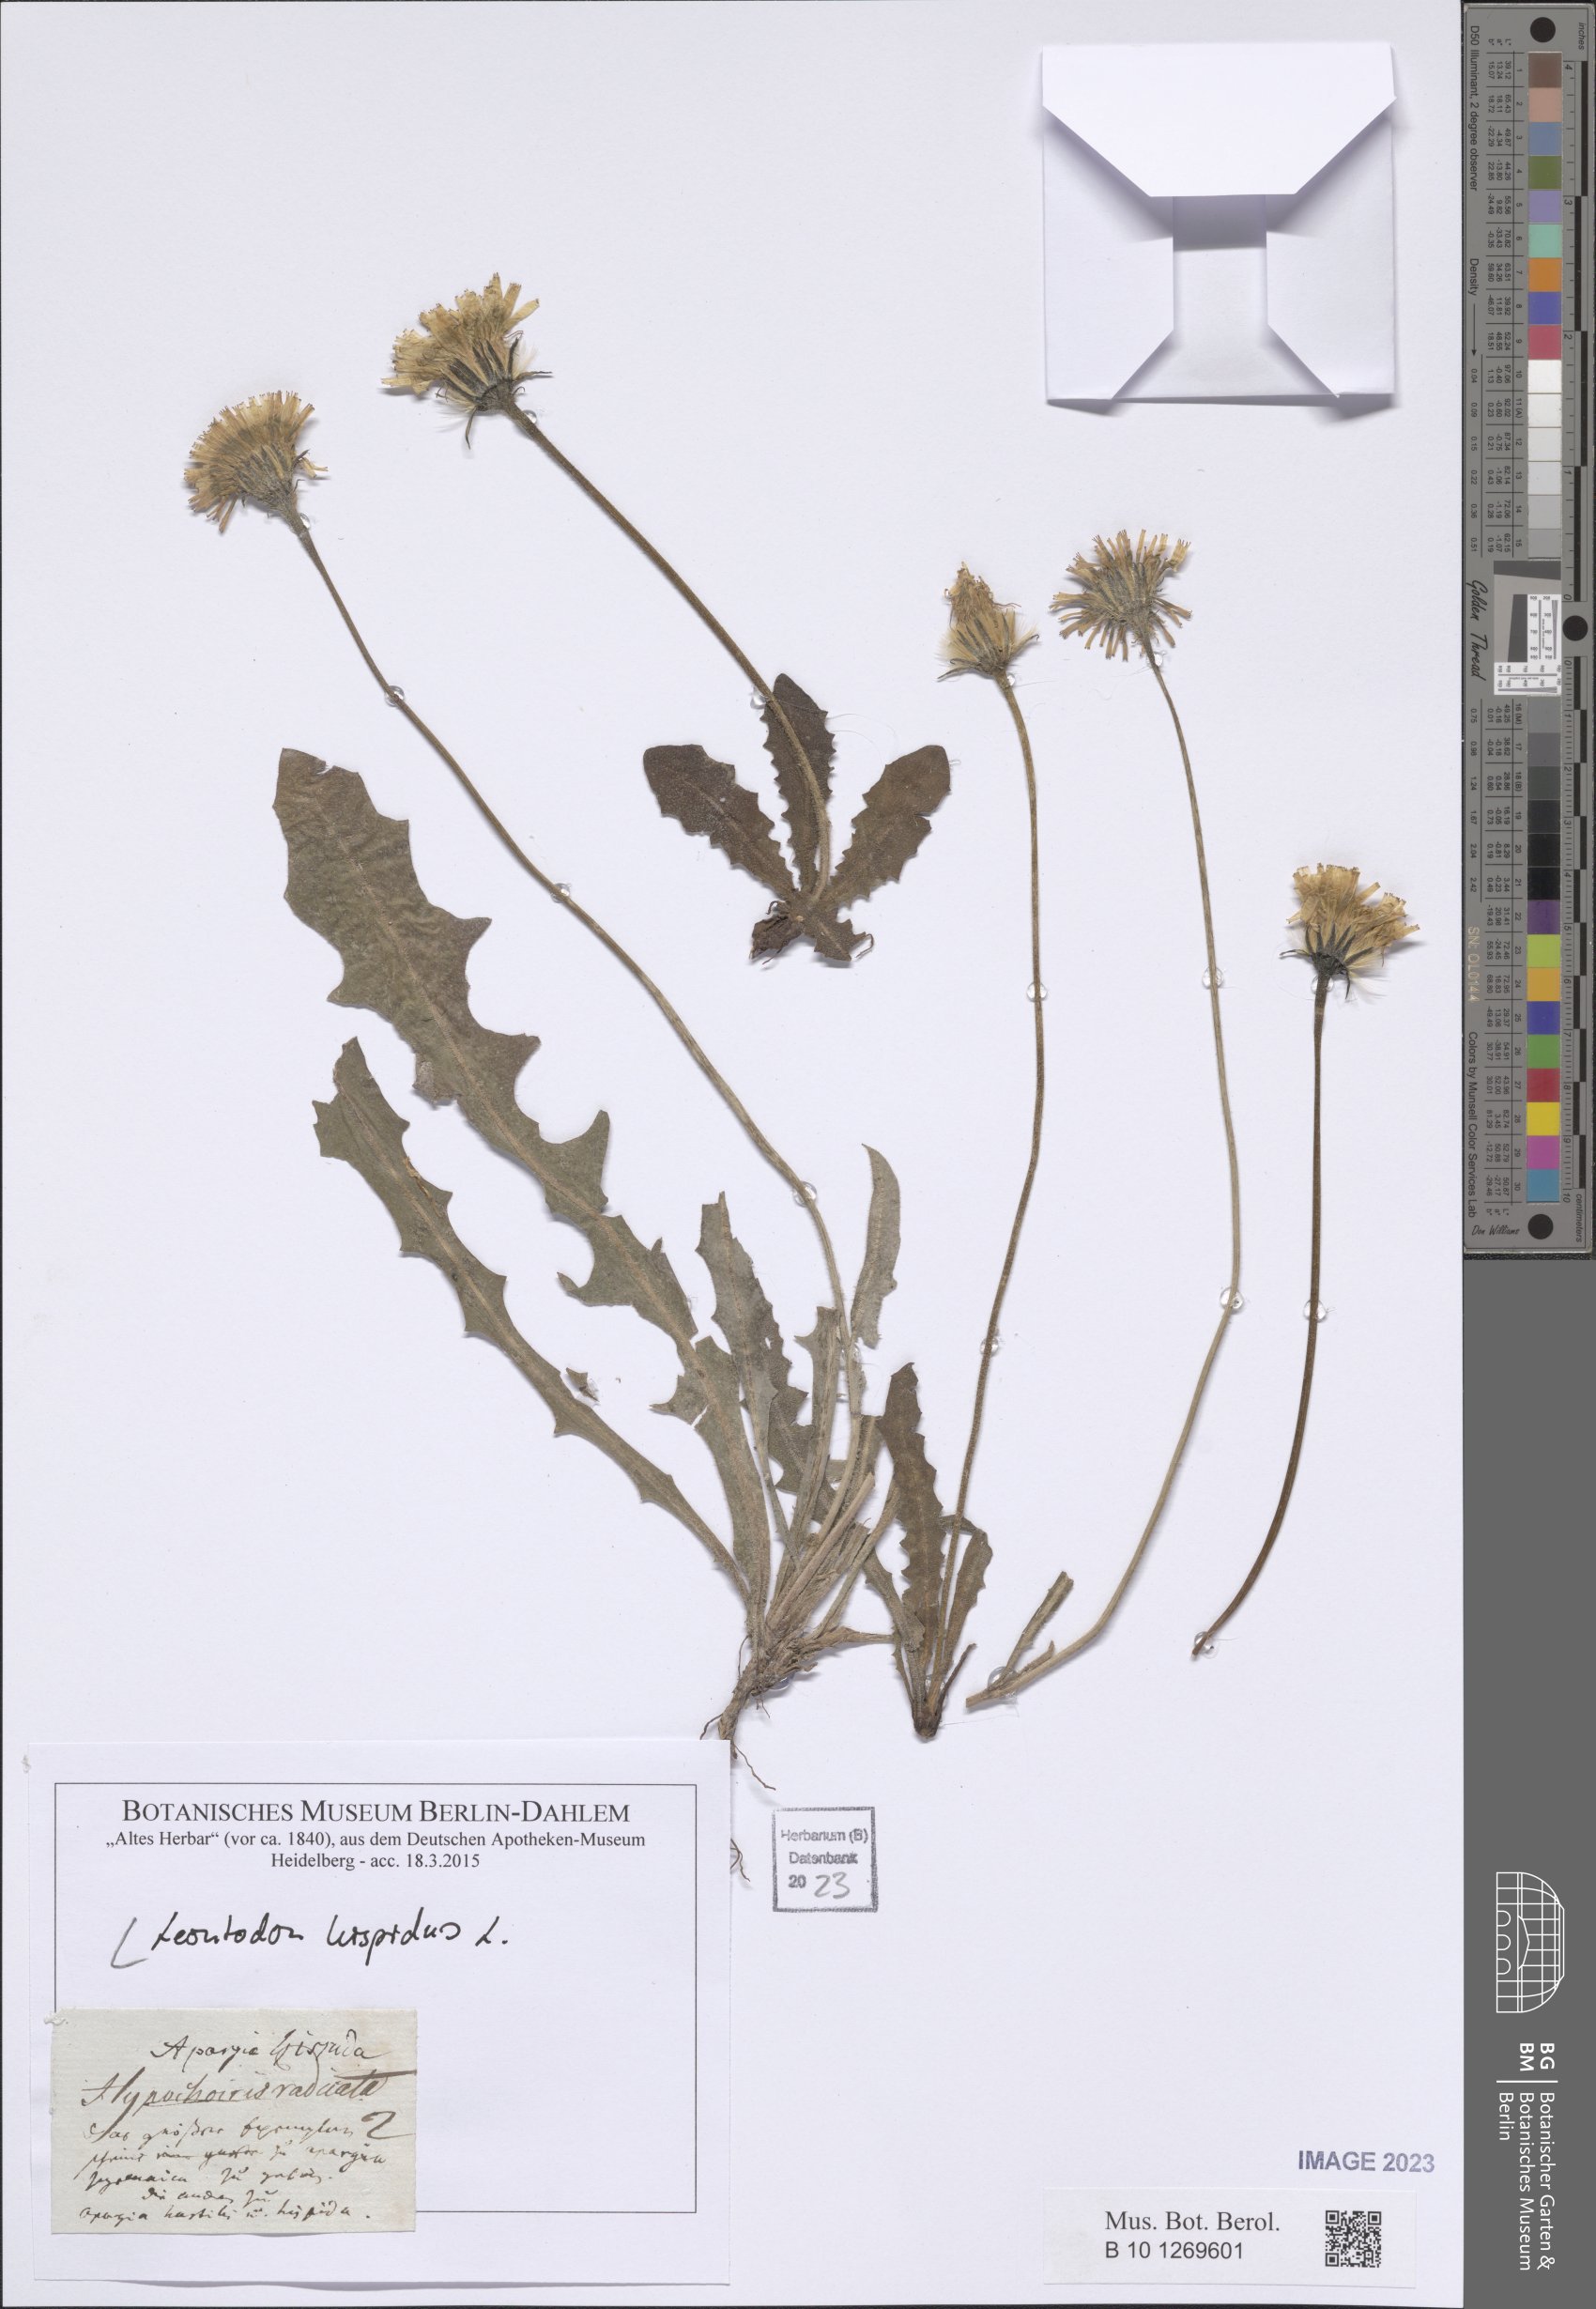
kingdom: Plantae
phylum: Tracheophyta
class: Magnoliopsida
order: Asterales
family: Asteraceae
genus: Leontodon
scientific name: Leontodon hispidus
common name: Rough hawkbit
